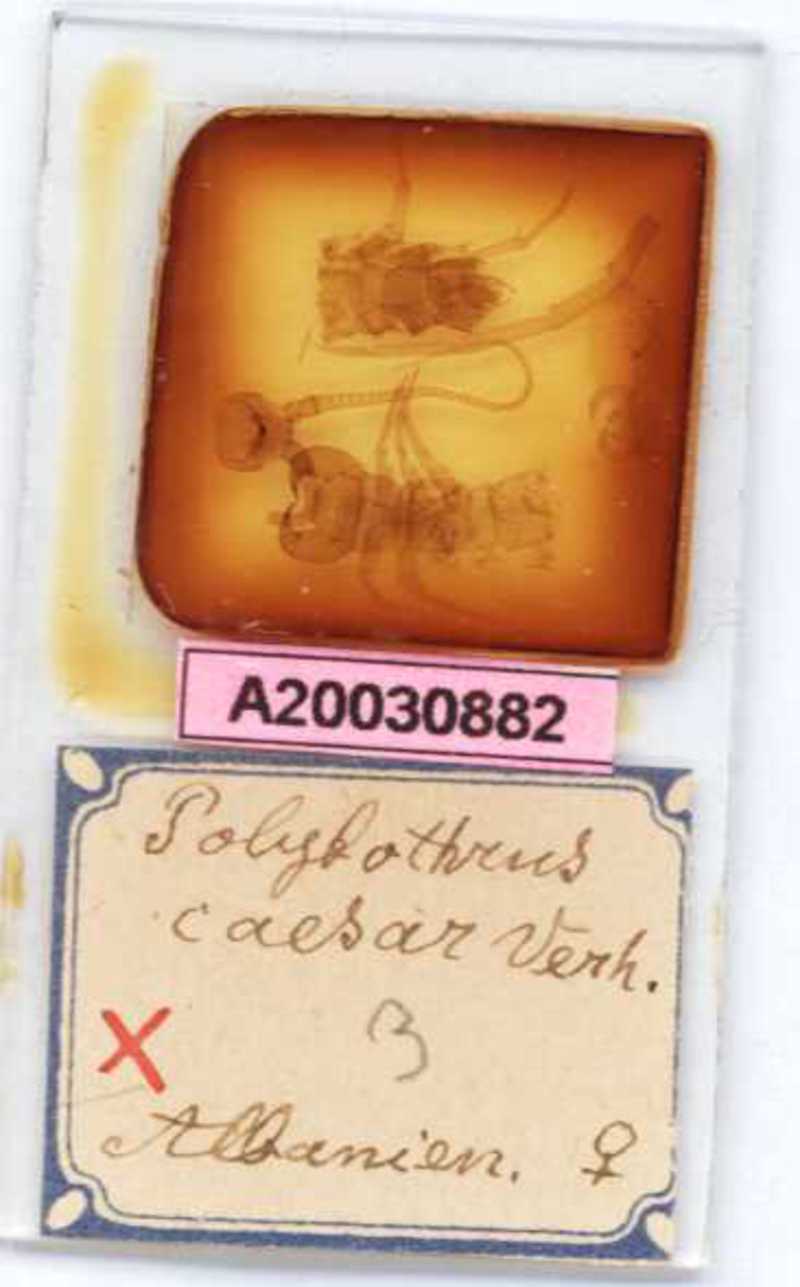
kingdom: Animalia
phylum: Arthropoda
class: Chilopoda
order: Lithobiomorpha
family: Lithobiidae
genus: Polybothrus
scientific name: Polybothrus caesar
